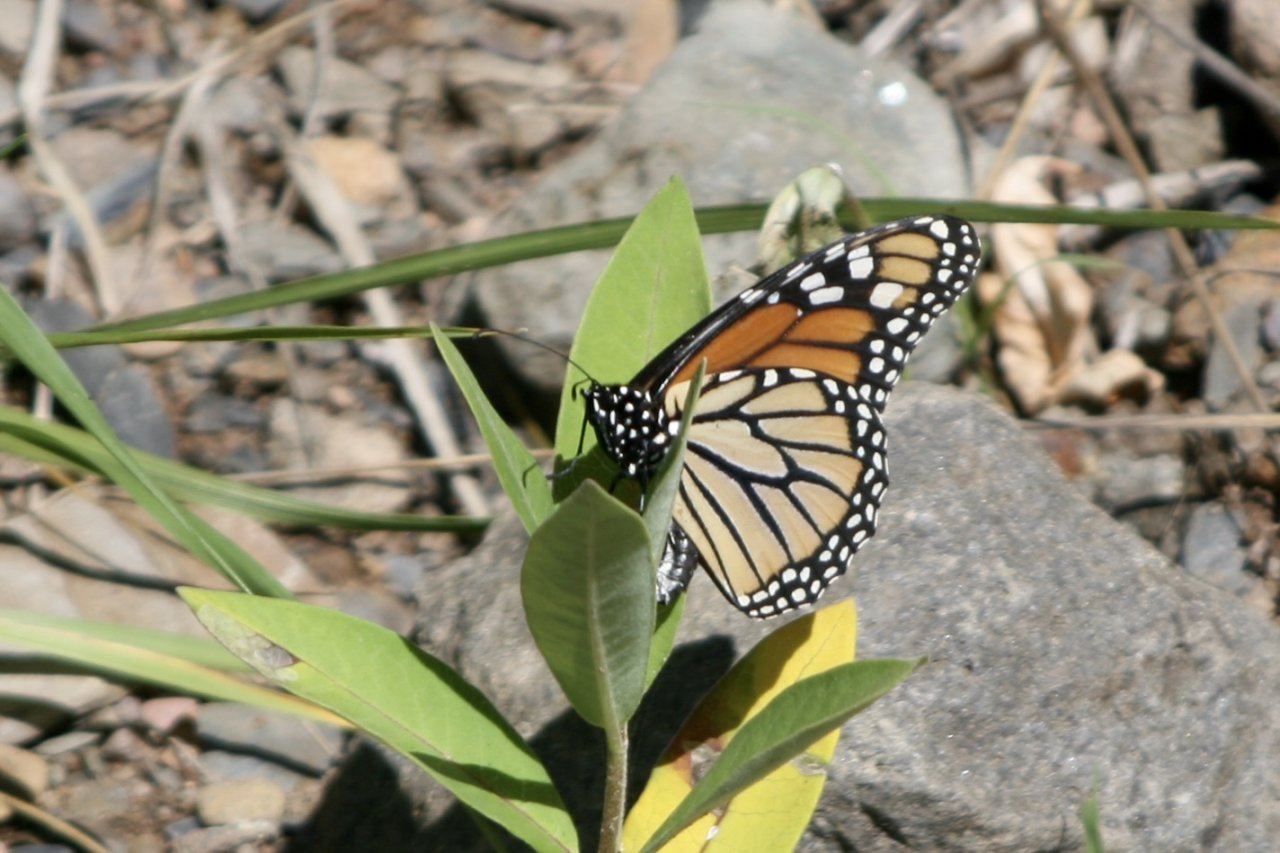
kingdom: Animalia
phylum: Arthropoda
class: Insecta
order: Lepidoptera
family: Nymphalidae
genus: Danaus
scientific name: Danaus plexippus
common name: Monarch
